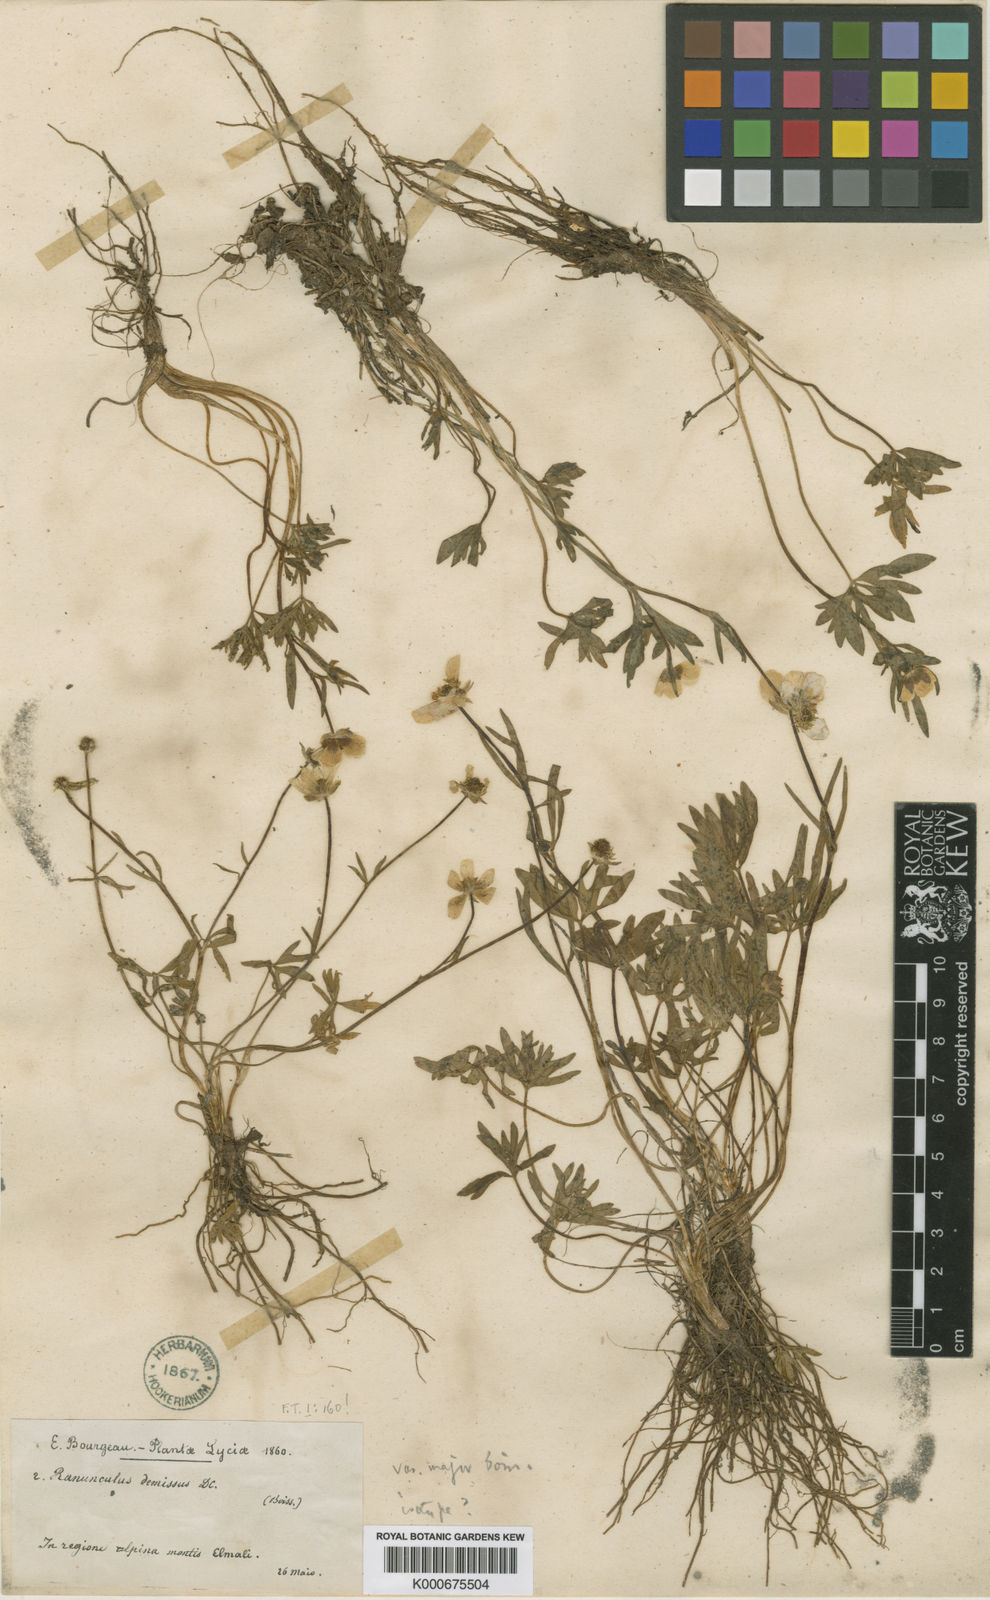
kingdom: Plantae
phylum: Tracheophyta
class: Magnoliopsida
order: Ranunculales
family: Ranunculaceae
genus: Ranunculus
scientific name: Ranunculus demissus
